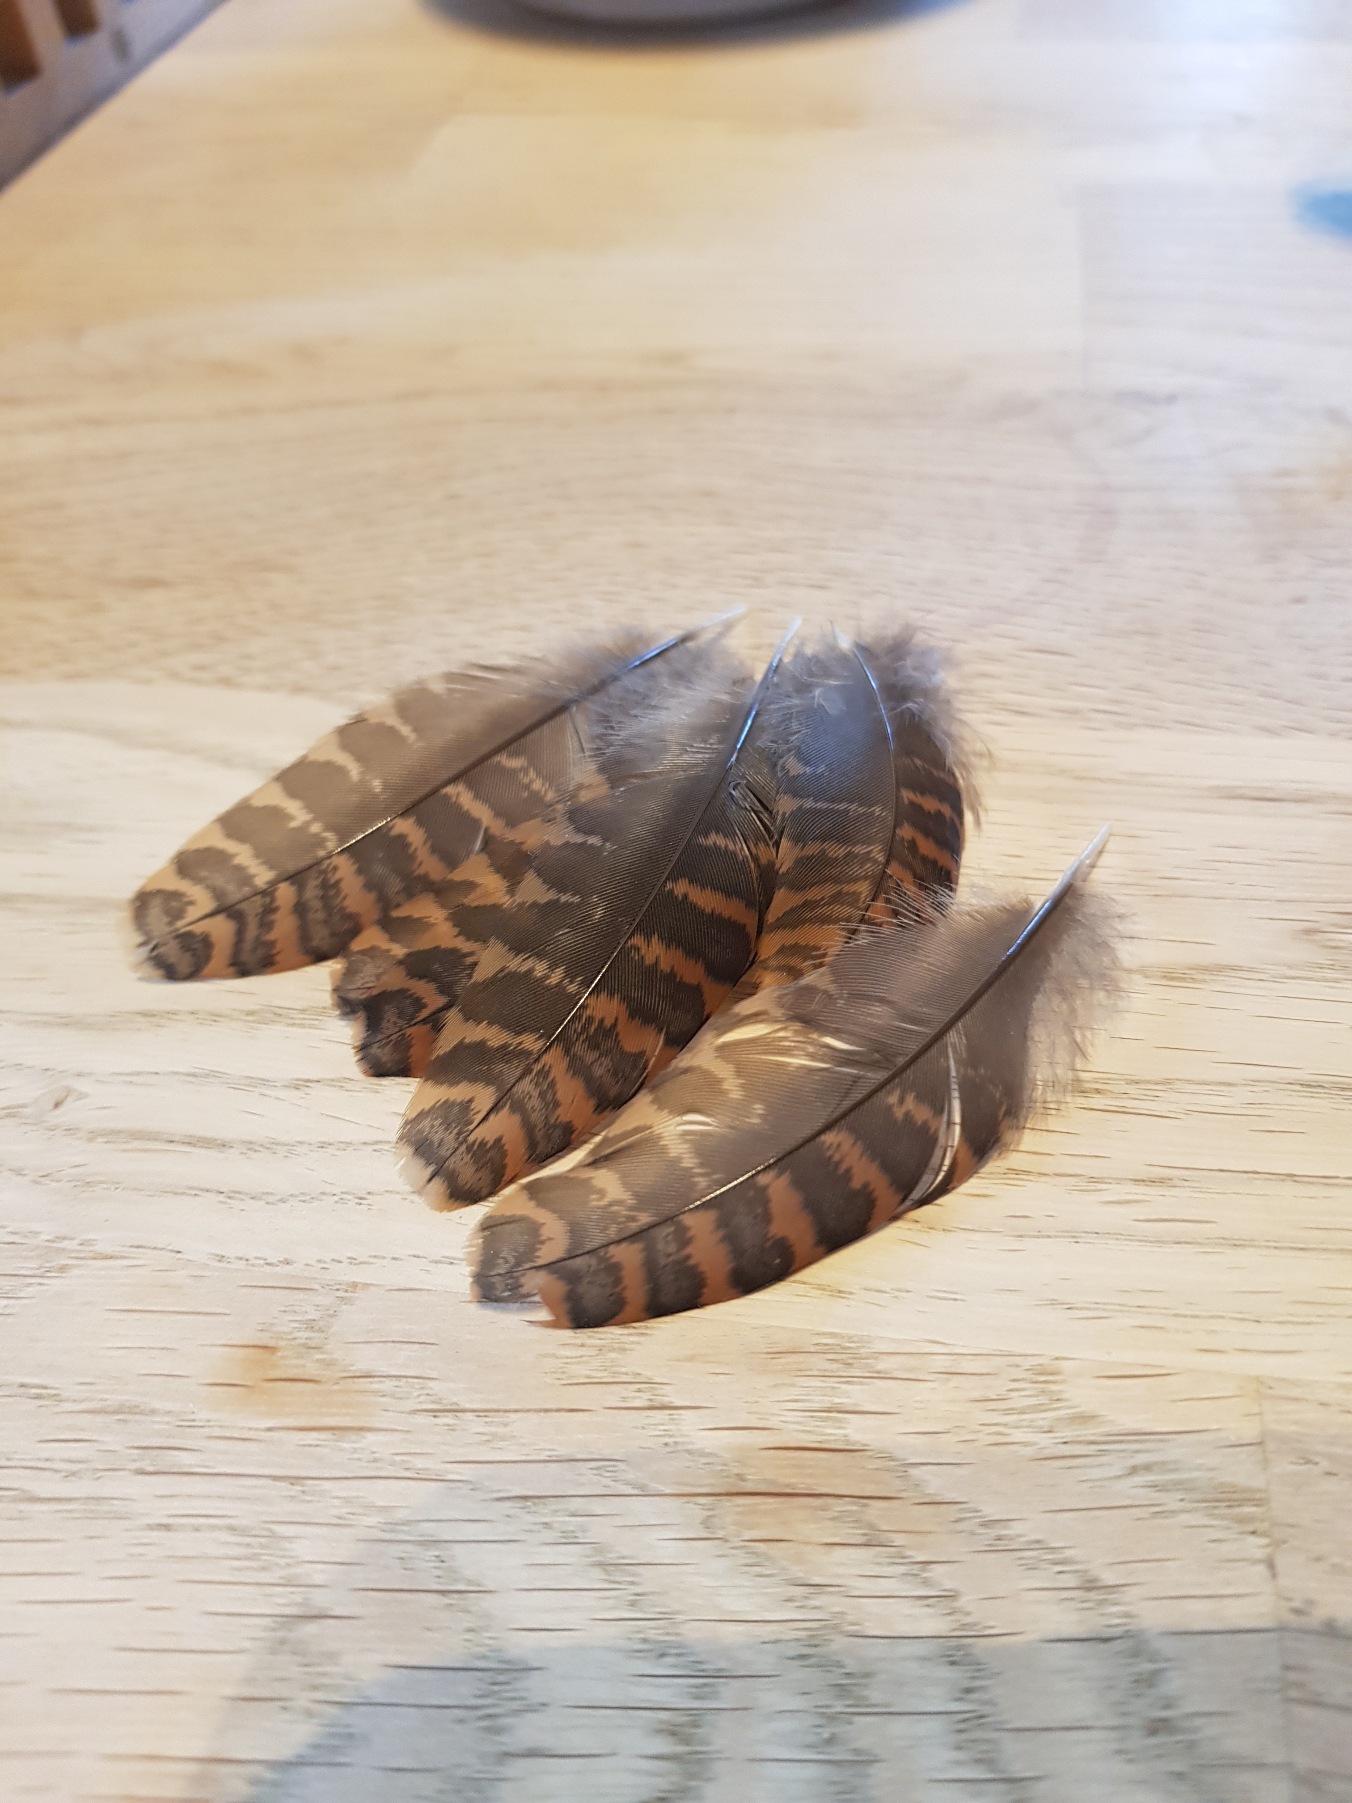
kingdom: Animalia
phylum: Chordata
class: Aves
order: Charadriiformes
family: Scolopacidae
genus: Scolopax
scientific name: Scolopax rusticola
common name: Skovsneppe
